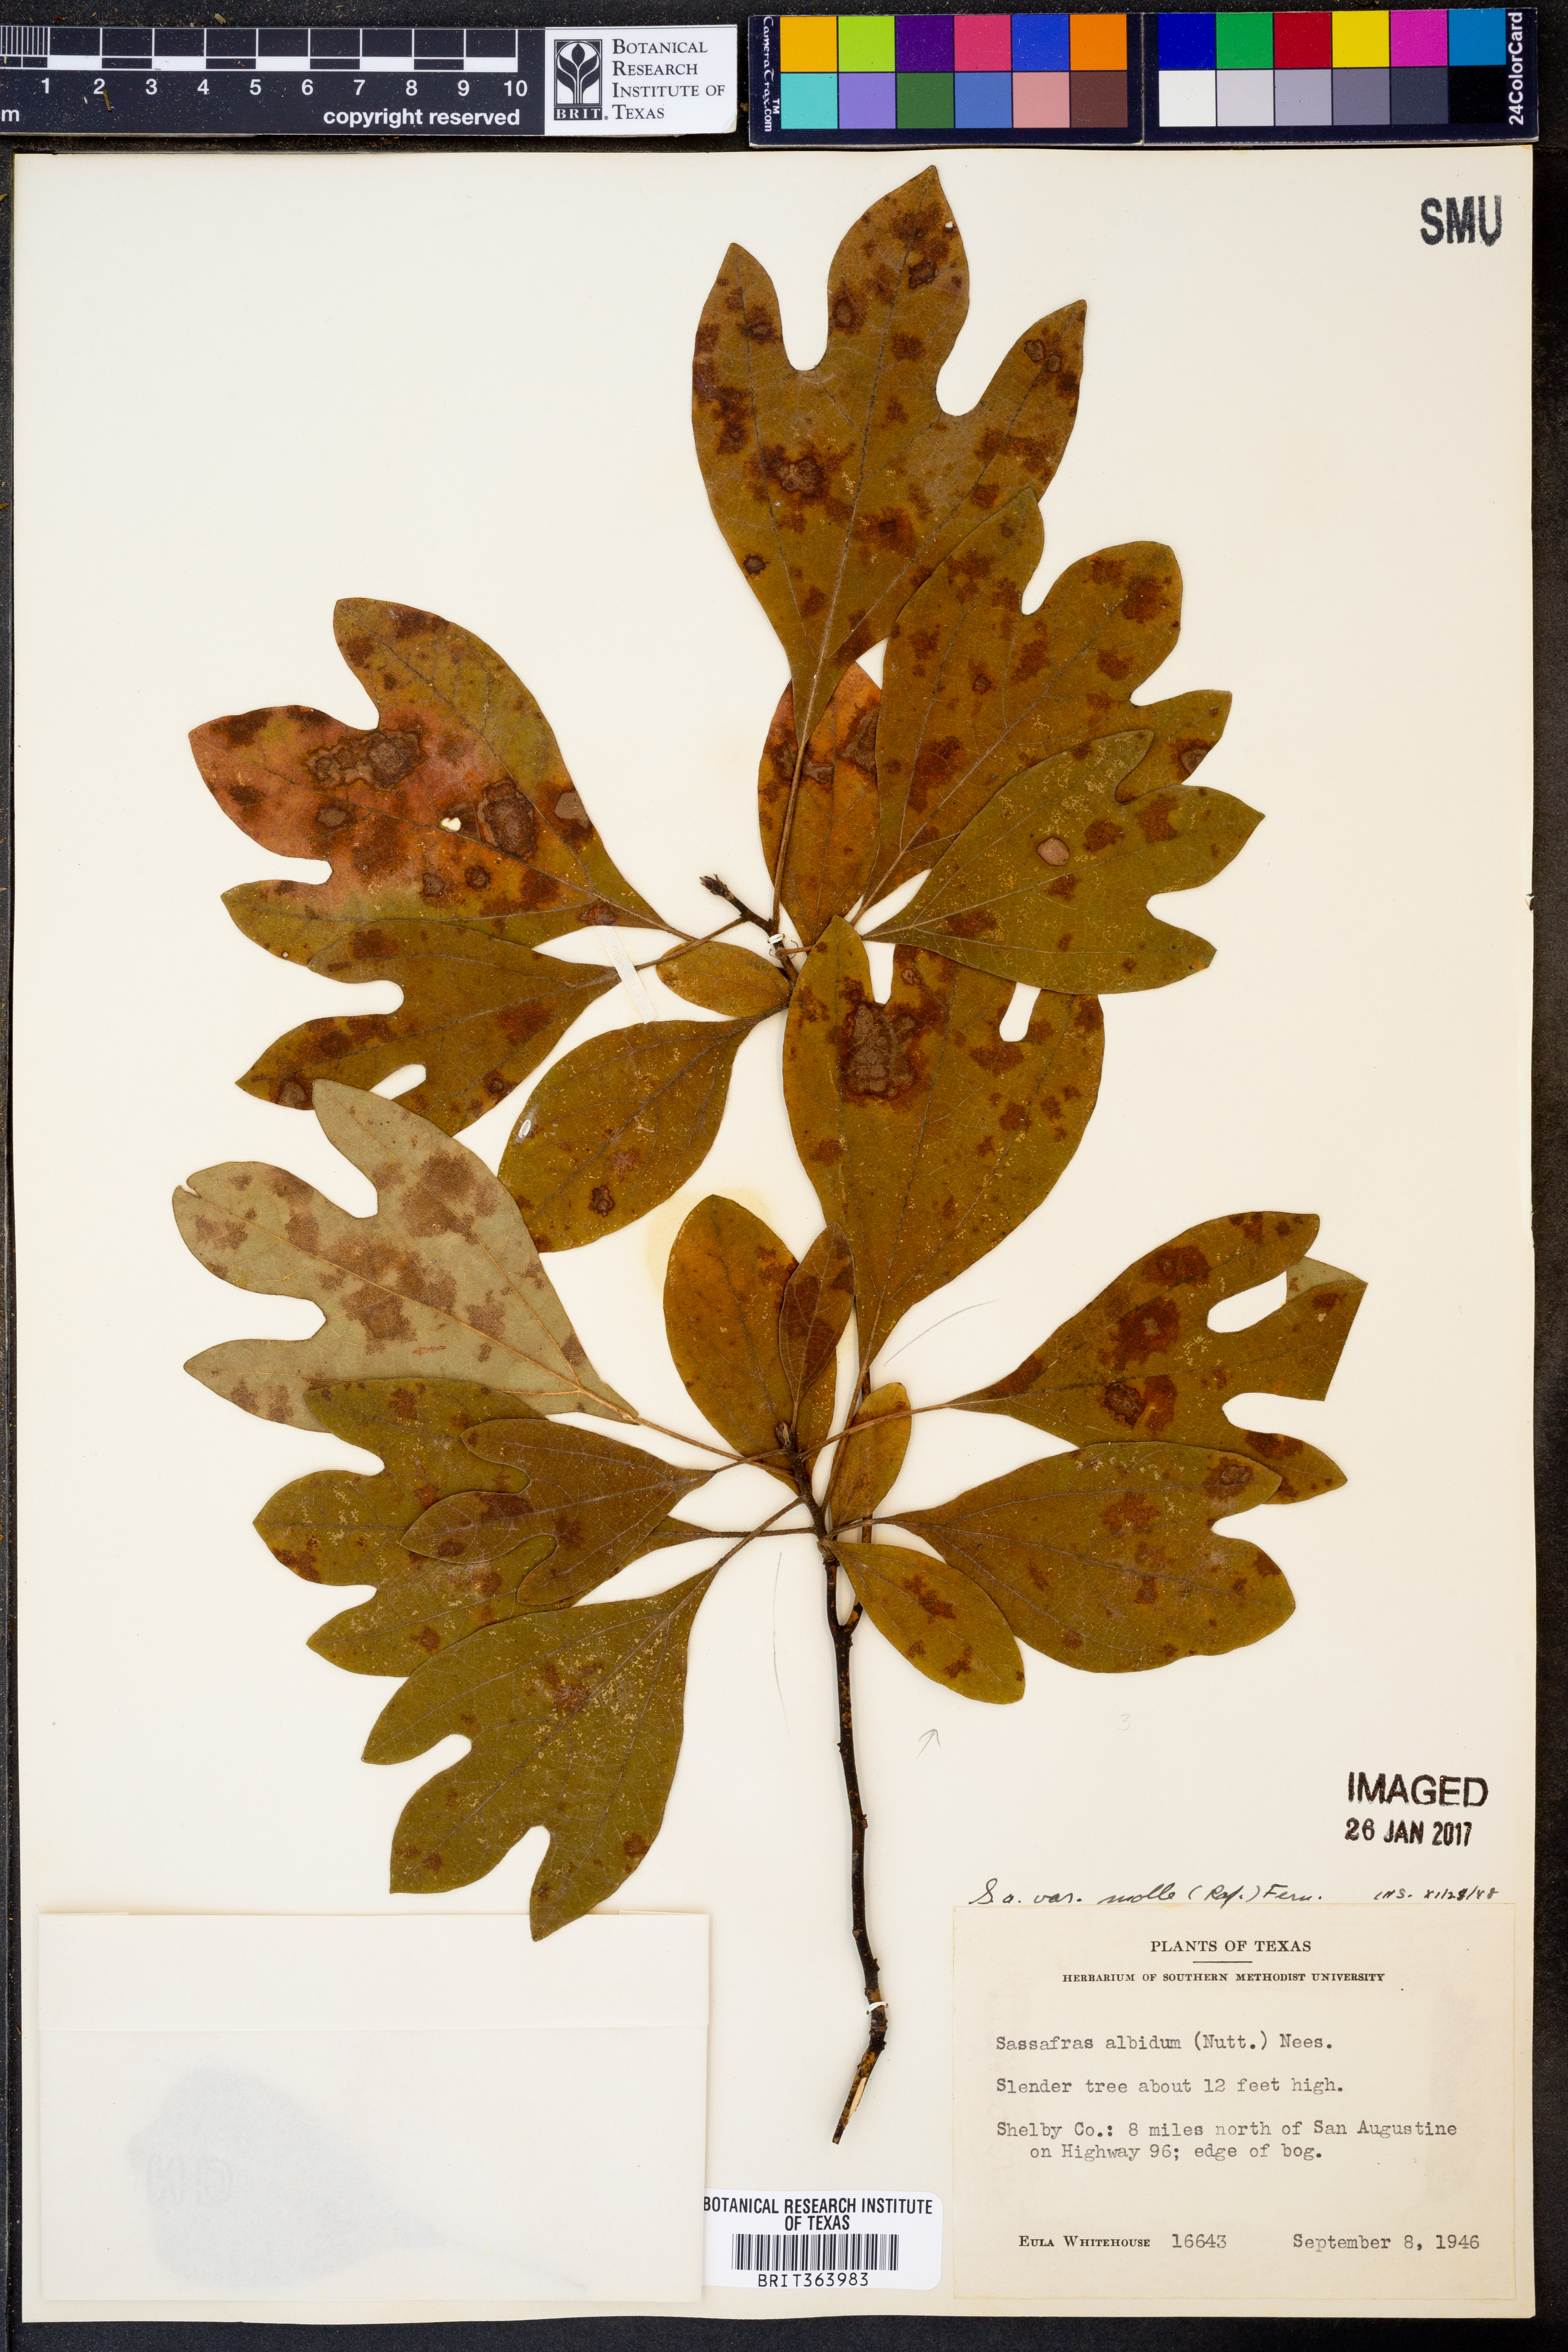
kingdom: Plantae
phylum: Tracheophyta
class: Magnoliopsida
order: Laurales
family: Lauraceae
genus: Sassafras
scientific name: Sassafras albidum
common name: Sassafras
